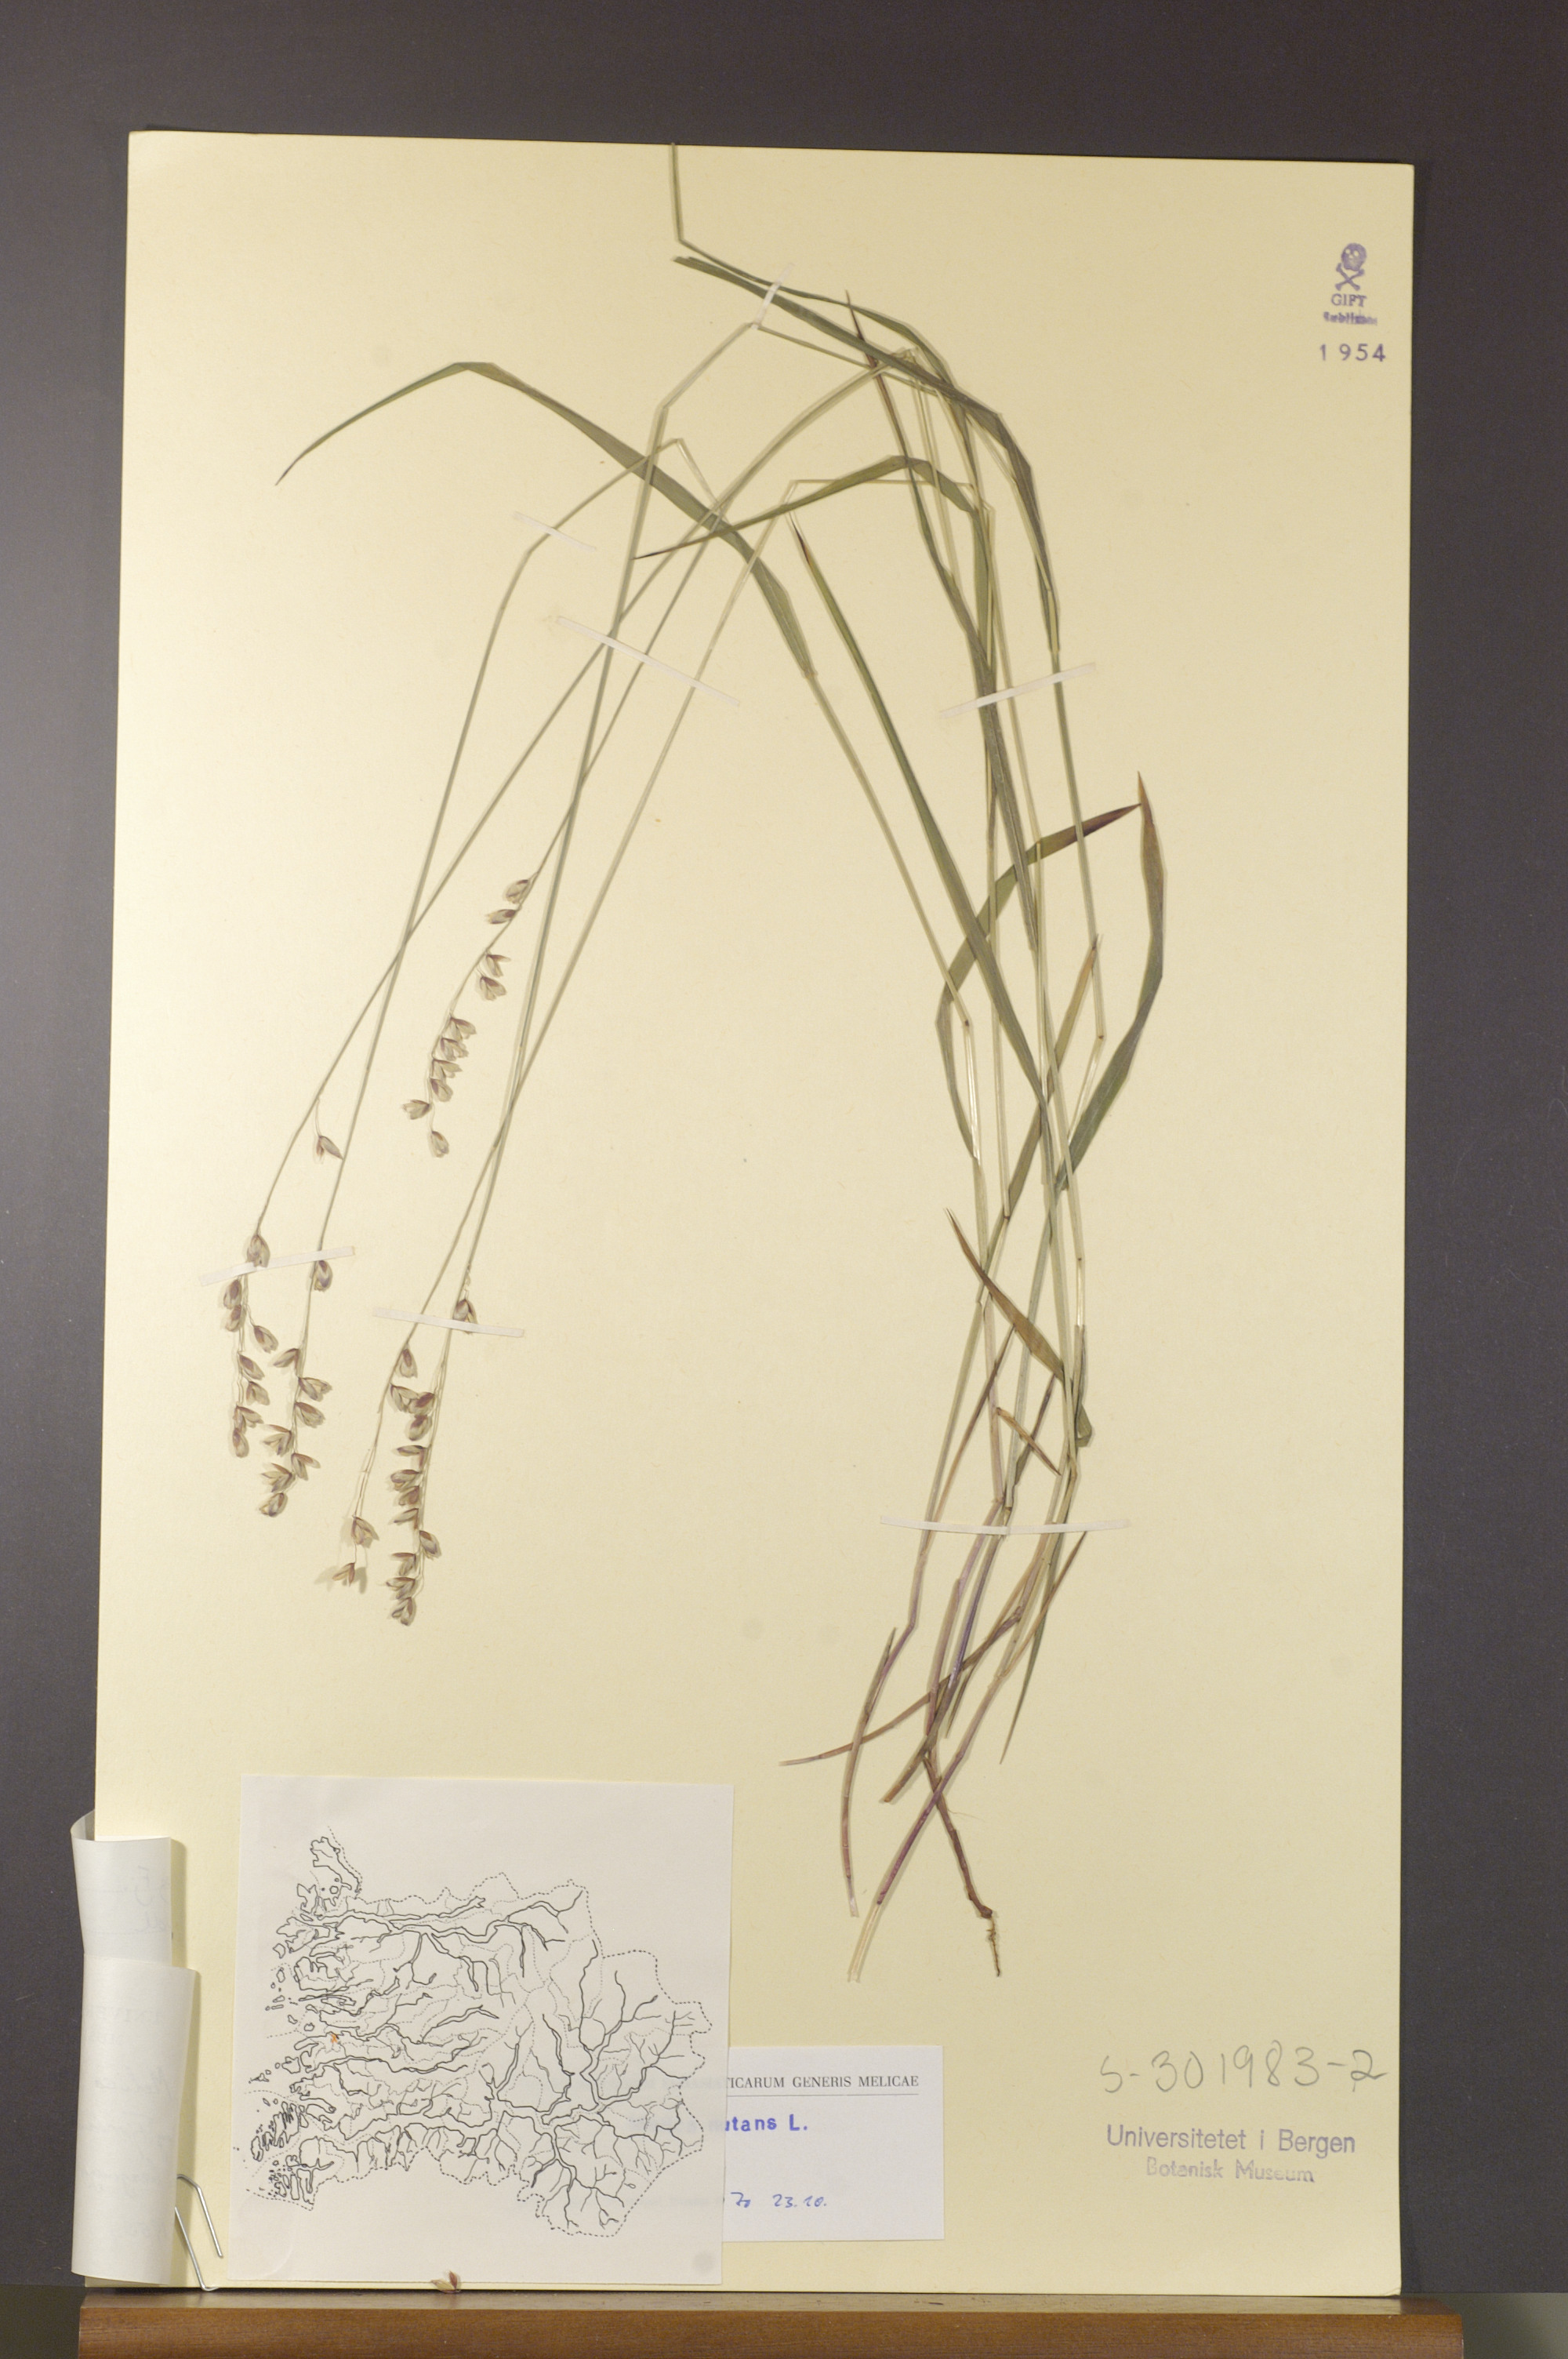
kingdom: Plantae
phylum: Tracheophyta
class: Liliopsida
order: Poales
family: Poaceae
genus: Melica
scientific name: Melica nutans
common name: Mountain melick
